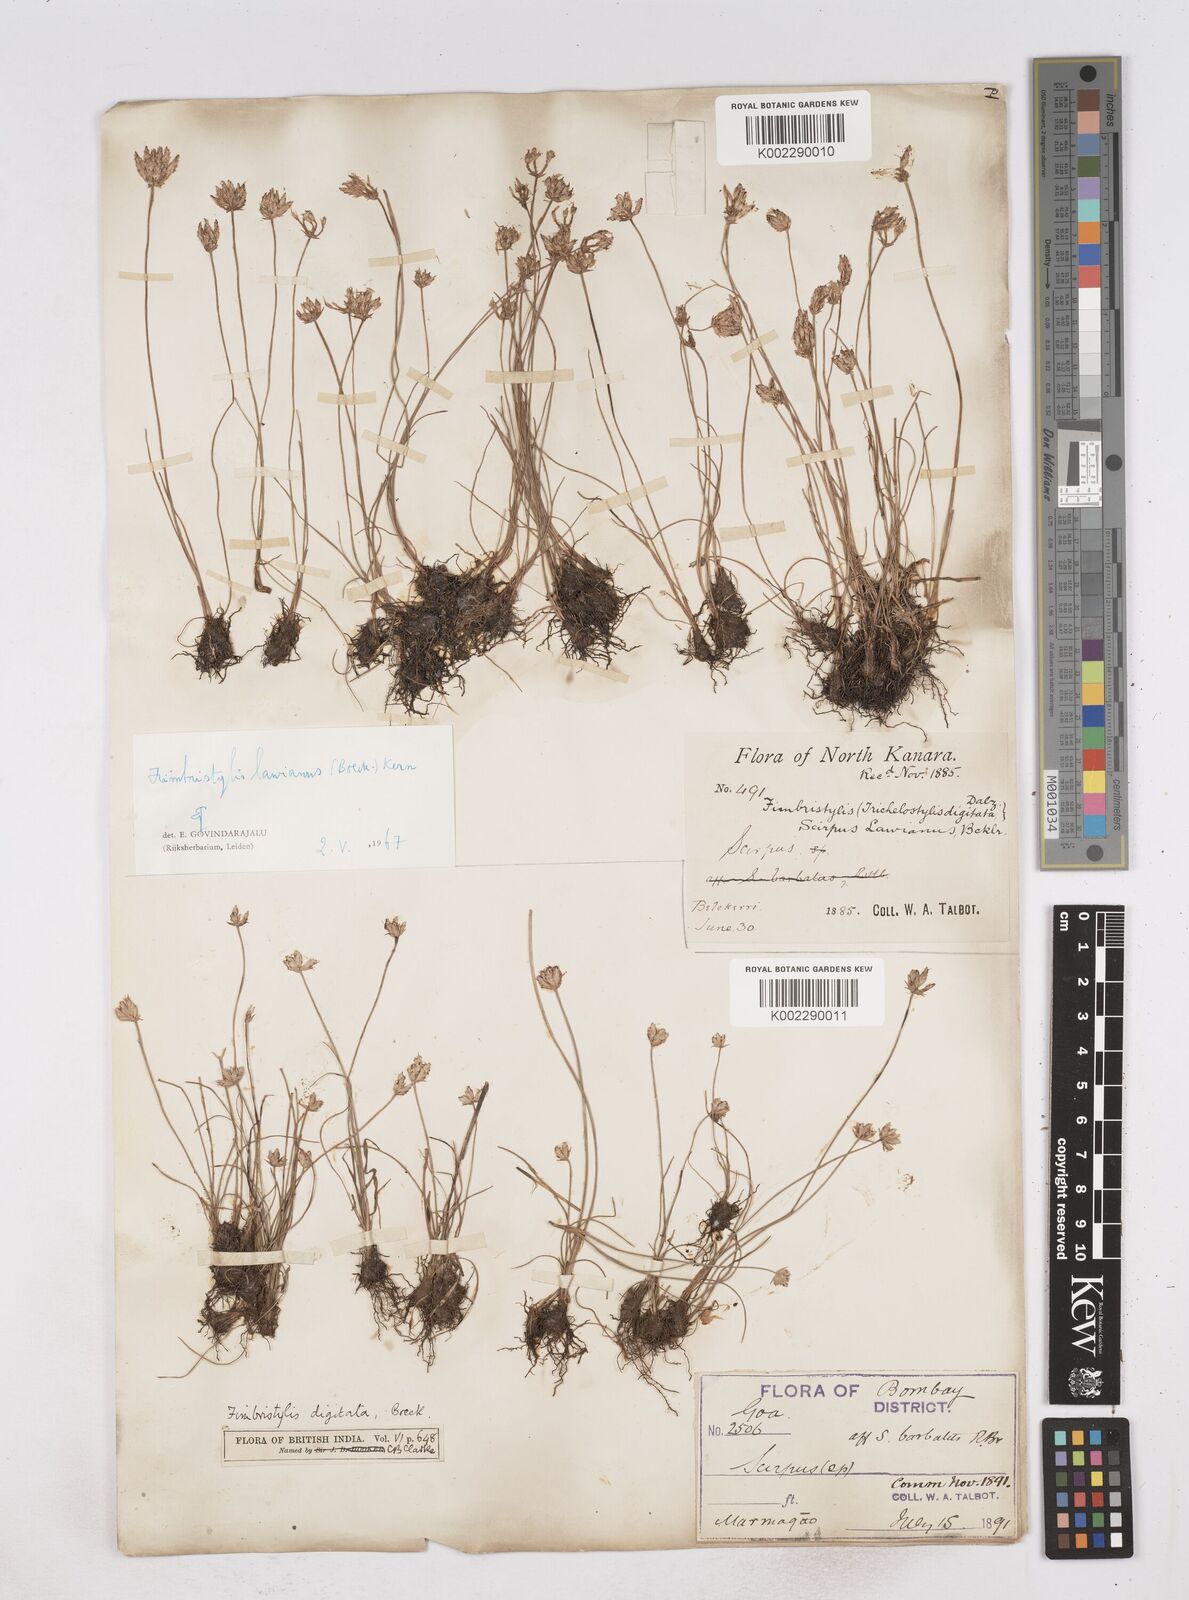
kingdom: Plantae
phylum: Tracheophyta
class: Liliopsida
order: Poales
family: Cyperaceae
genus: Fimbristylis
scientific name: Fimbristylis lawiana
